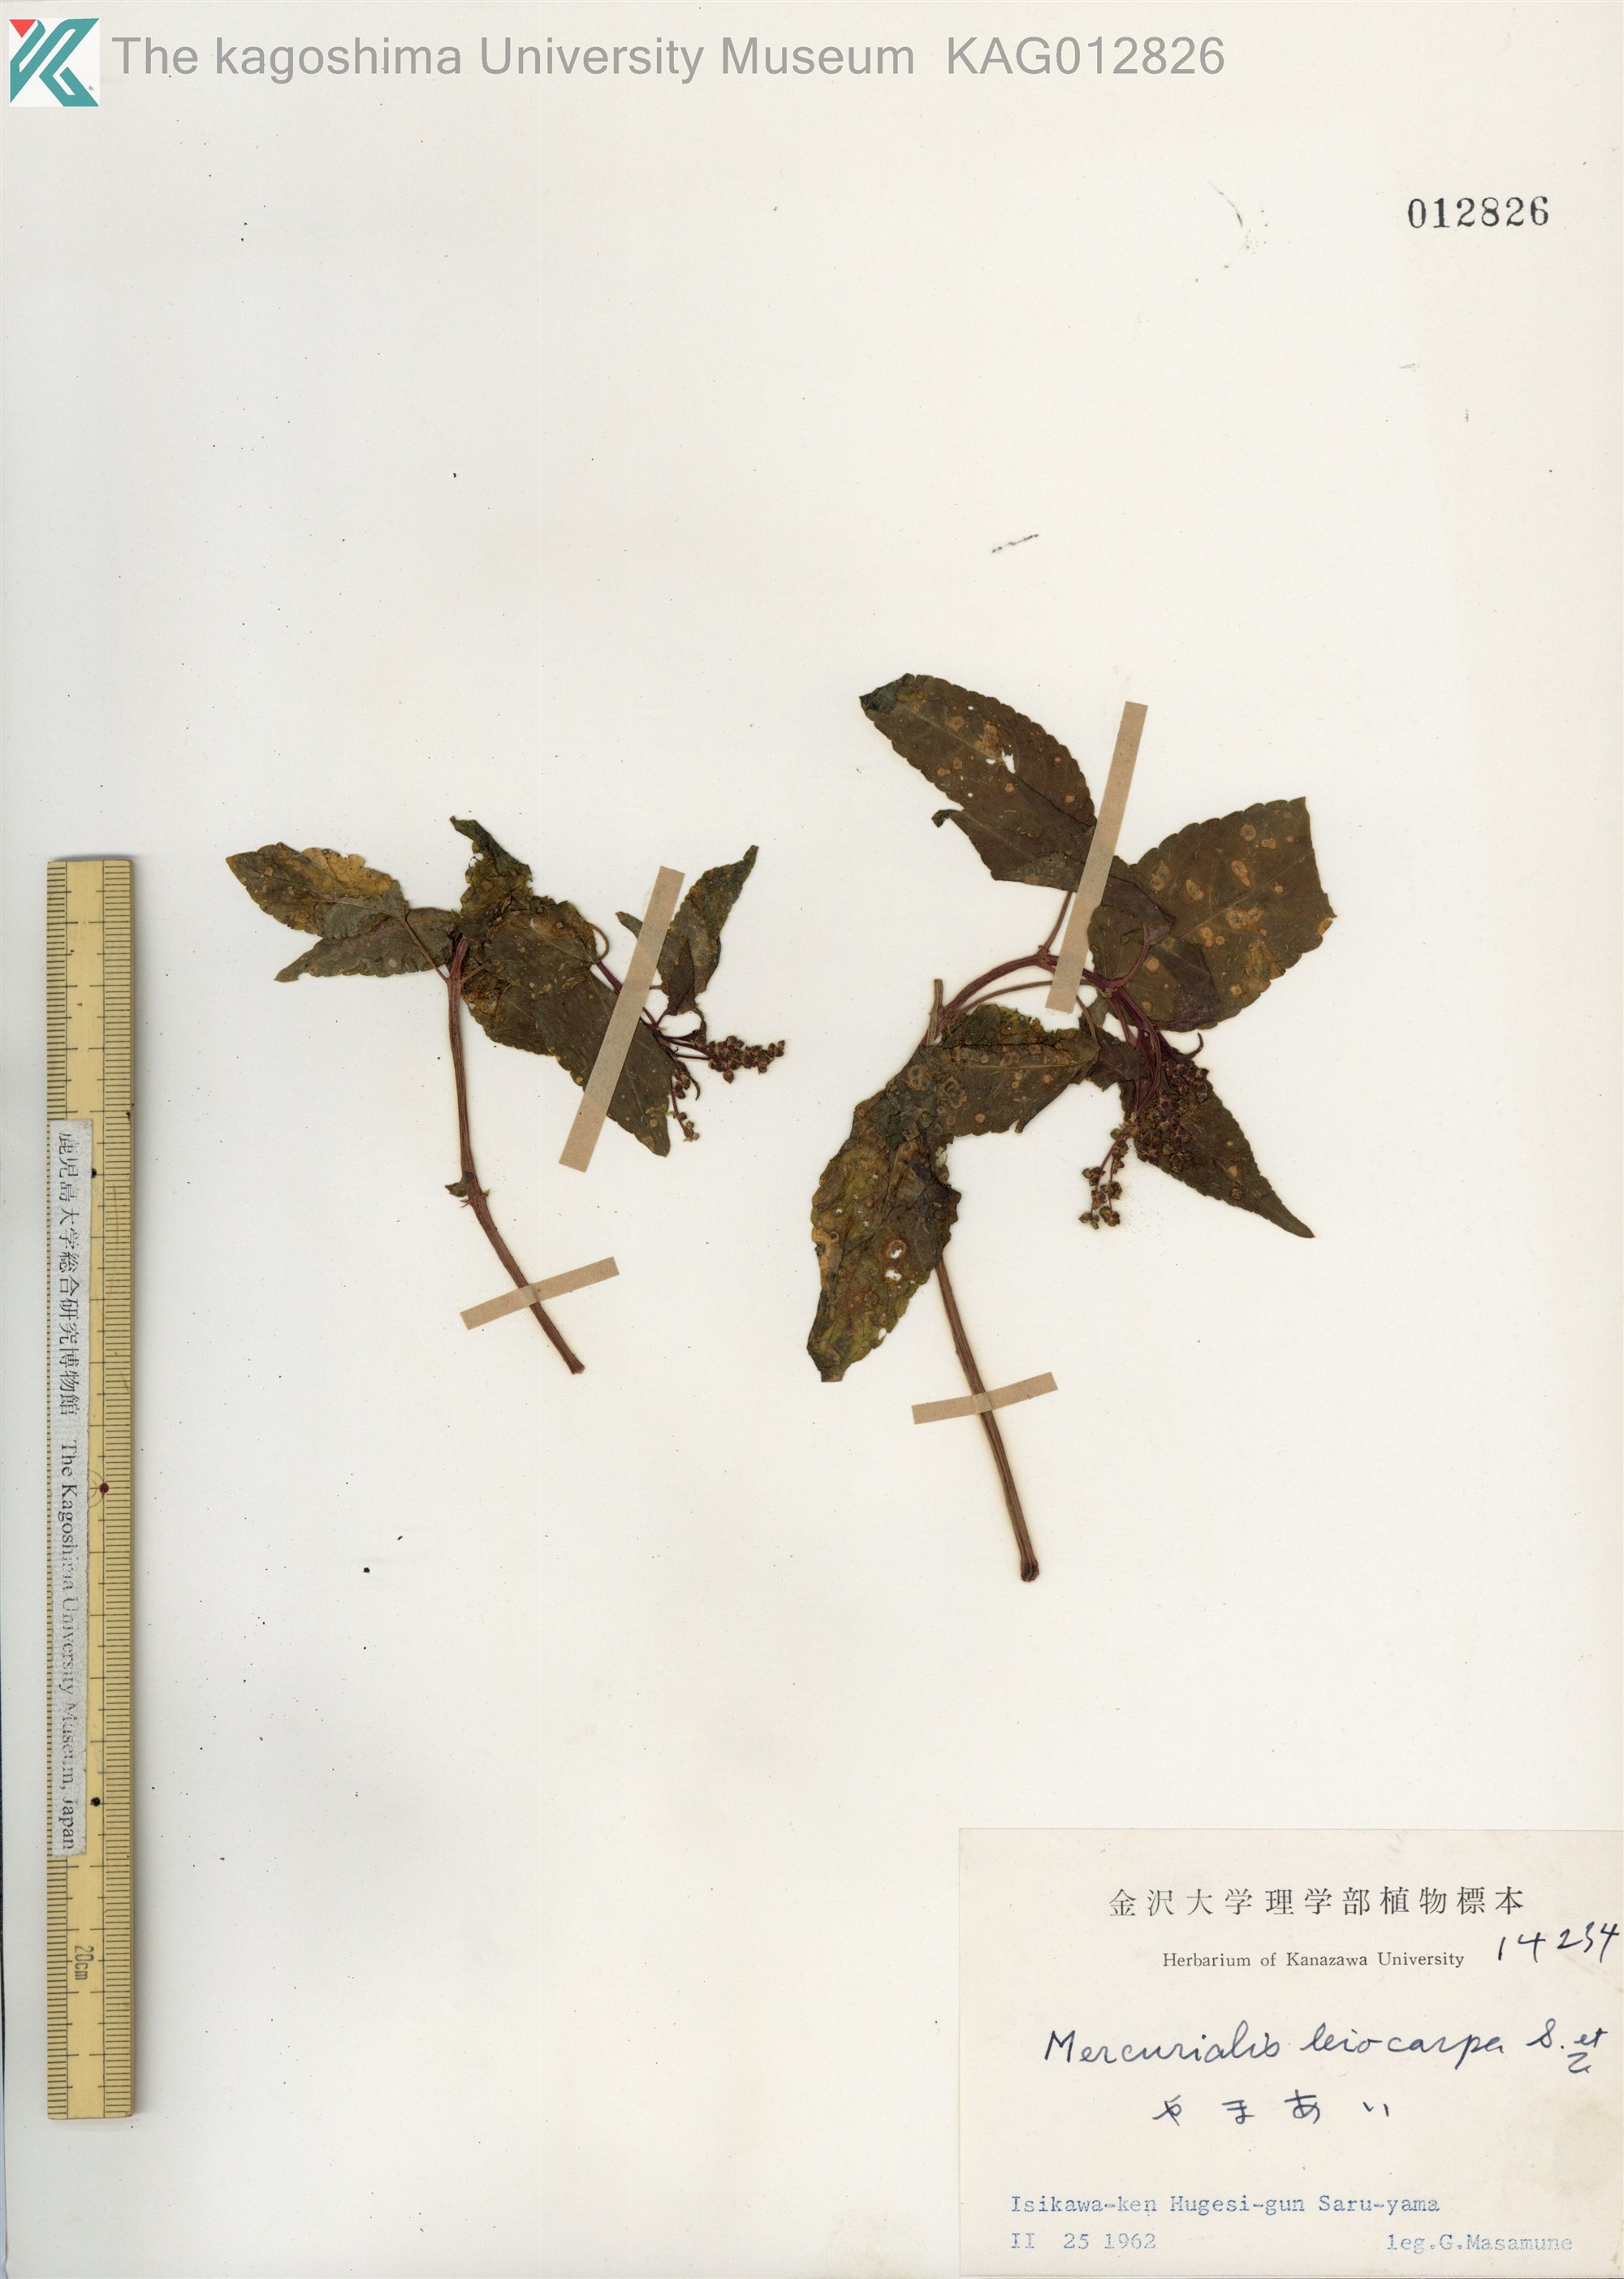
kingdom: Plantae
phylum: Tracheophyta
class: Magnoliopsida
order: Malpighiales
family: Euphorbiaceae
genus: Mercurialis
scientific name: Mercurialis leiocarpa
